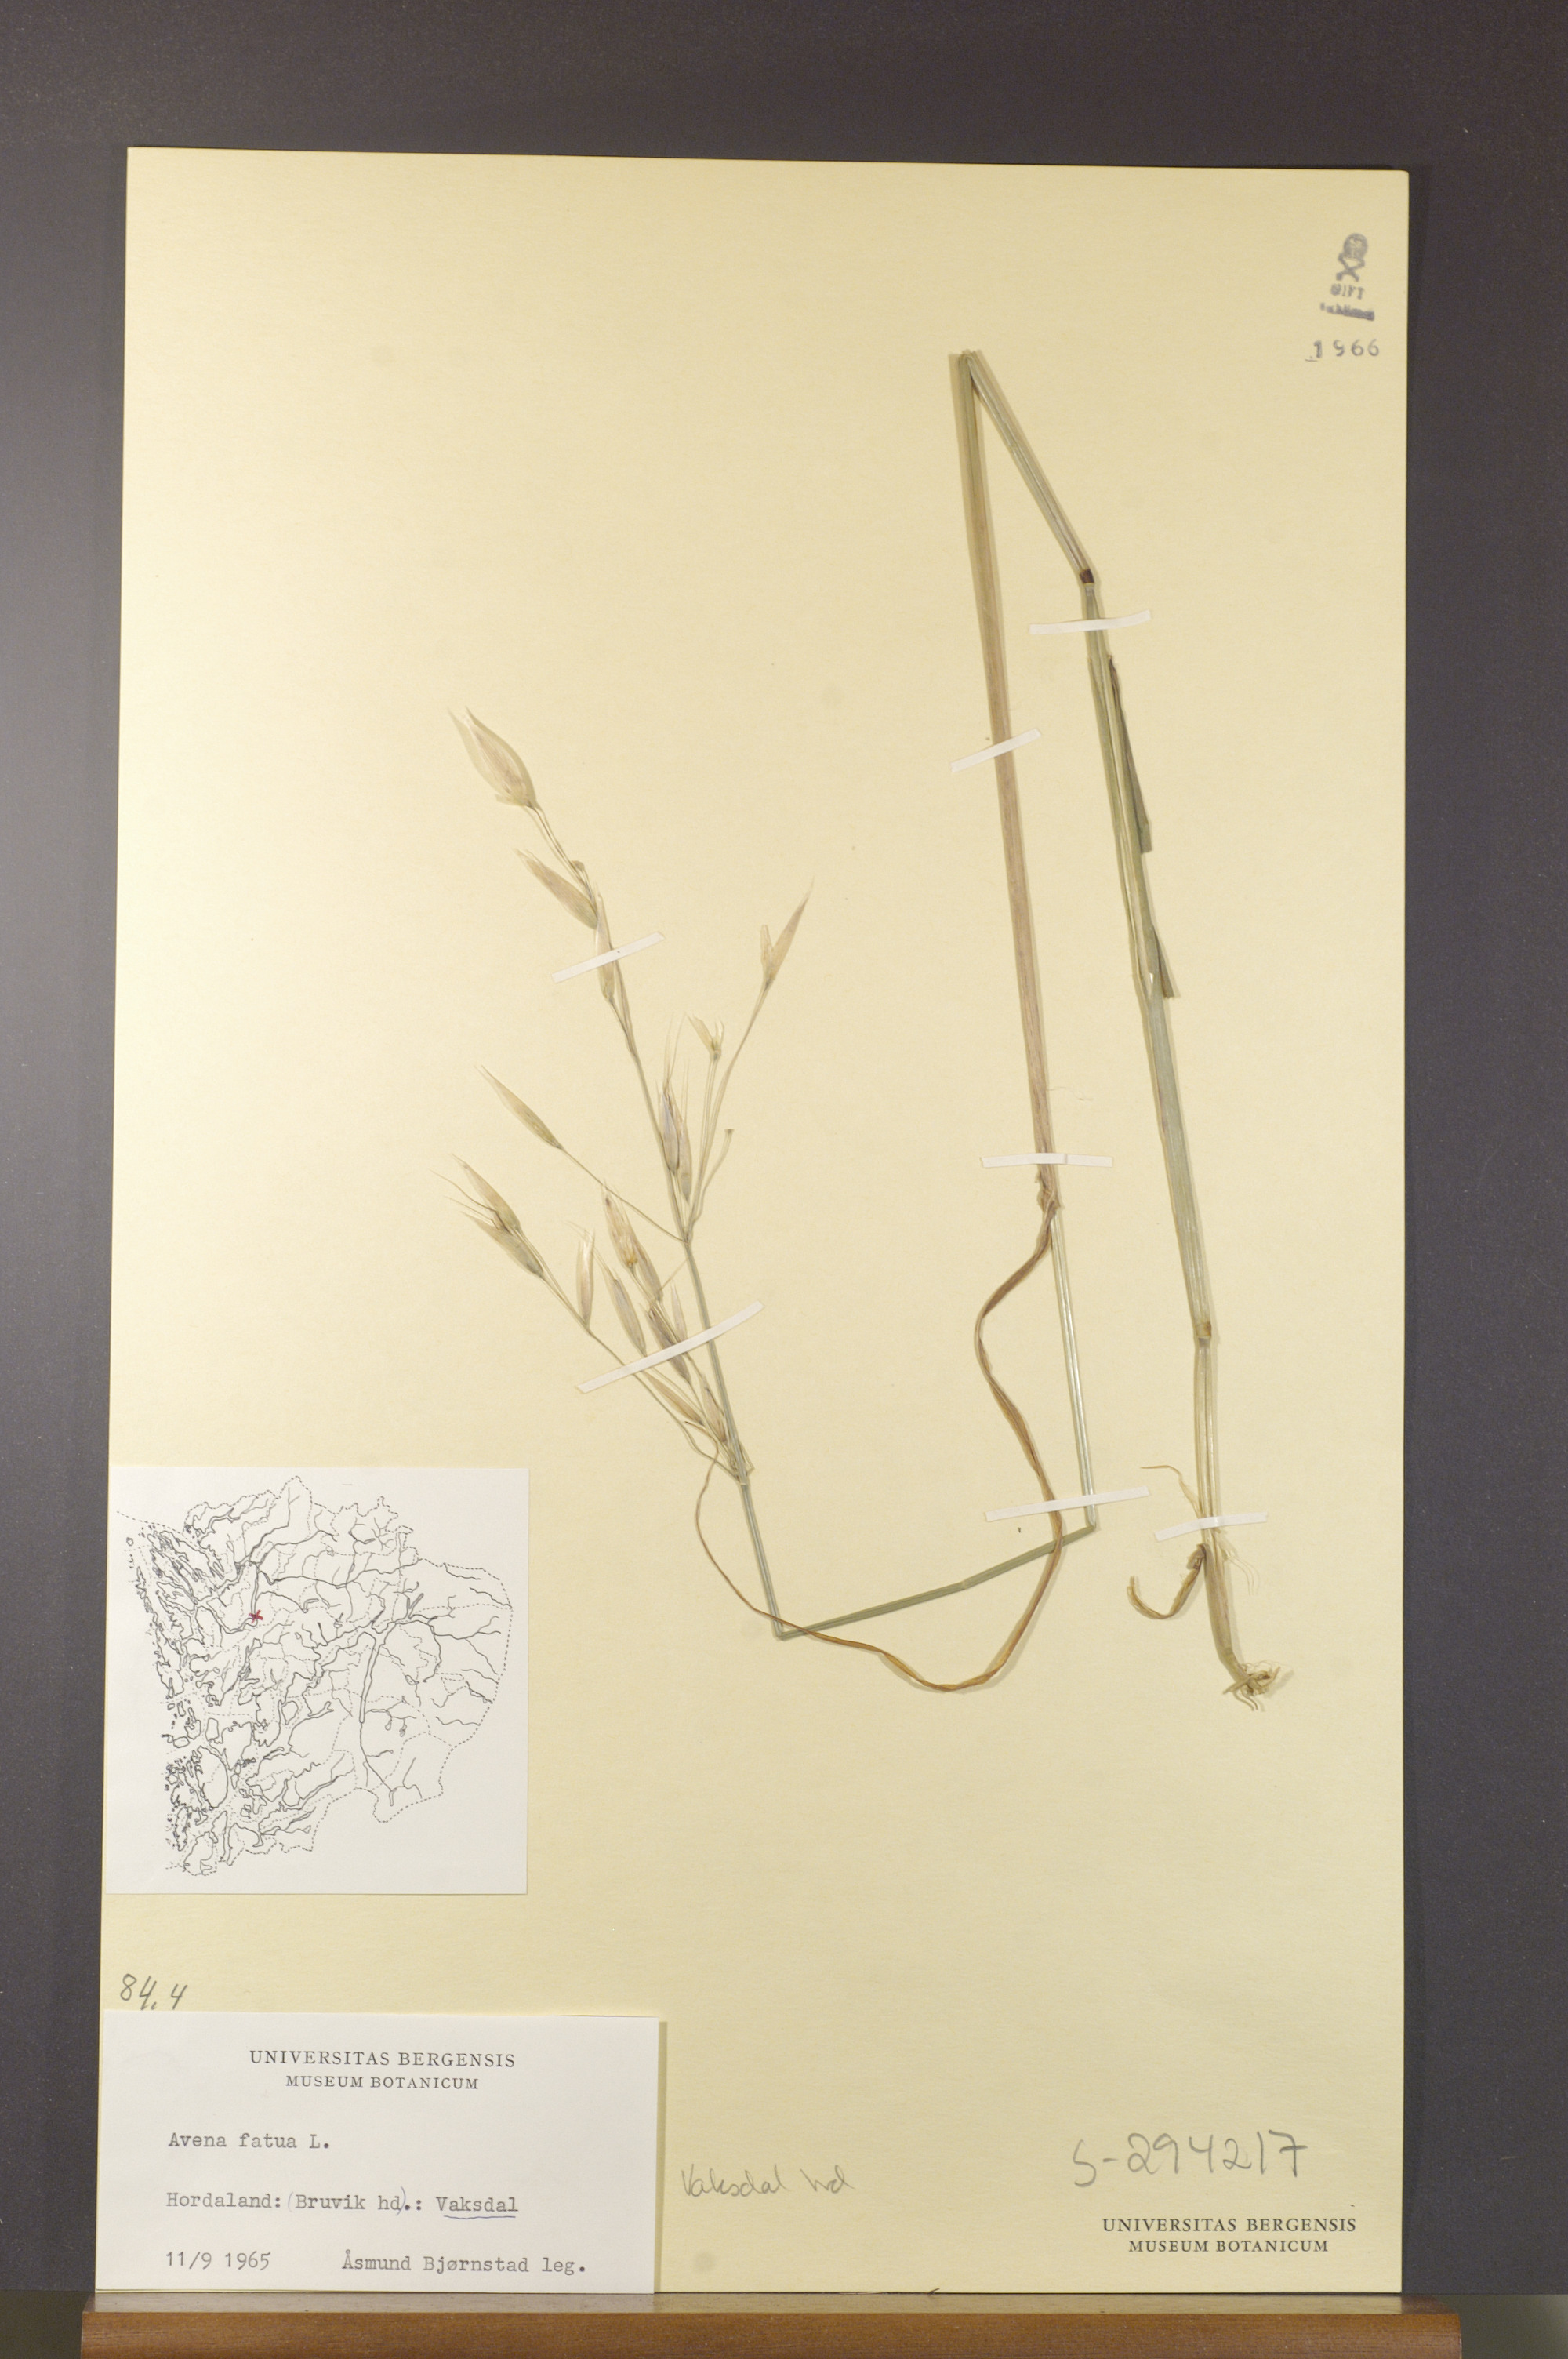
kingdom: Plantae
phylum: Tracheophyta
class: Liliopsida
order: Poales
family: Poaceae
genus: Avena
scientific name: Avena fatua
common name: Wild oat
